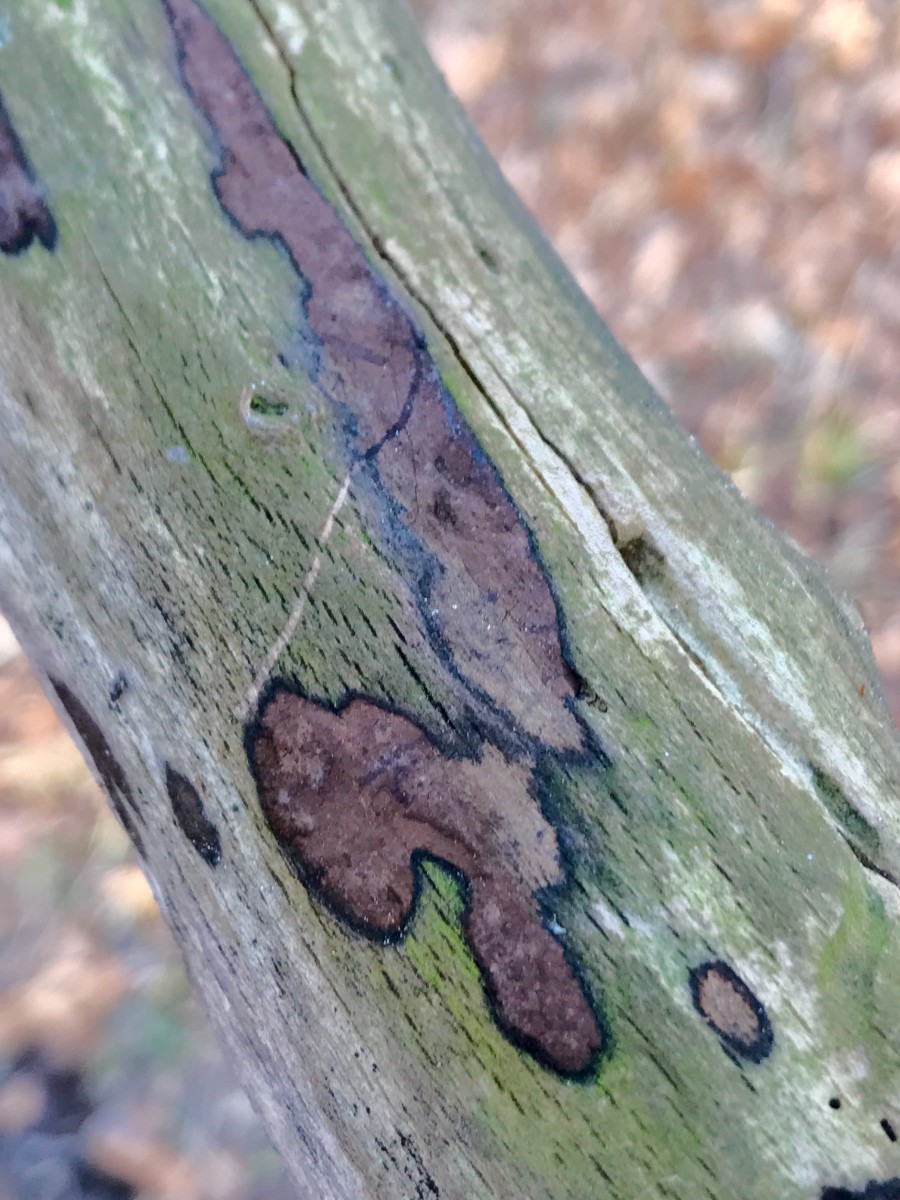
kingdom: Fungi
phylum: Ascomycota
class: Sordariomycetes
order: Xylariales
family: Hypoxylaceae
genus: Hypoxylon
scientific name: Hypoxylon petriniae
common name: nedsænket kulbær
